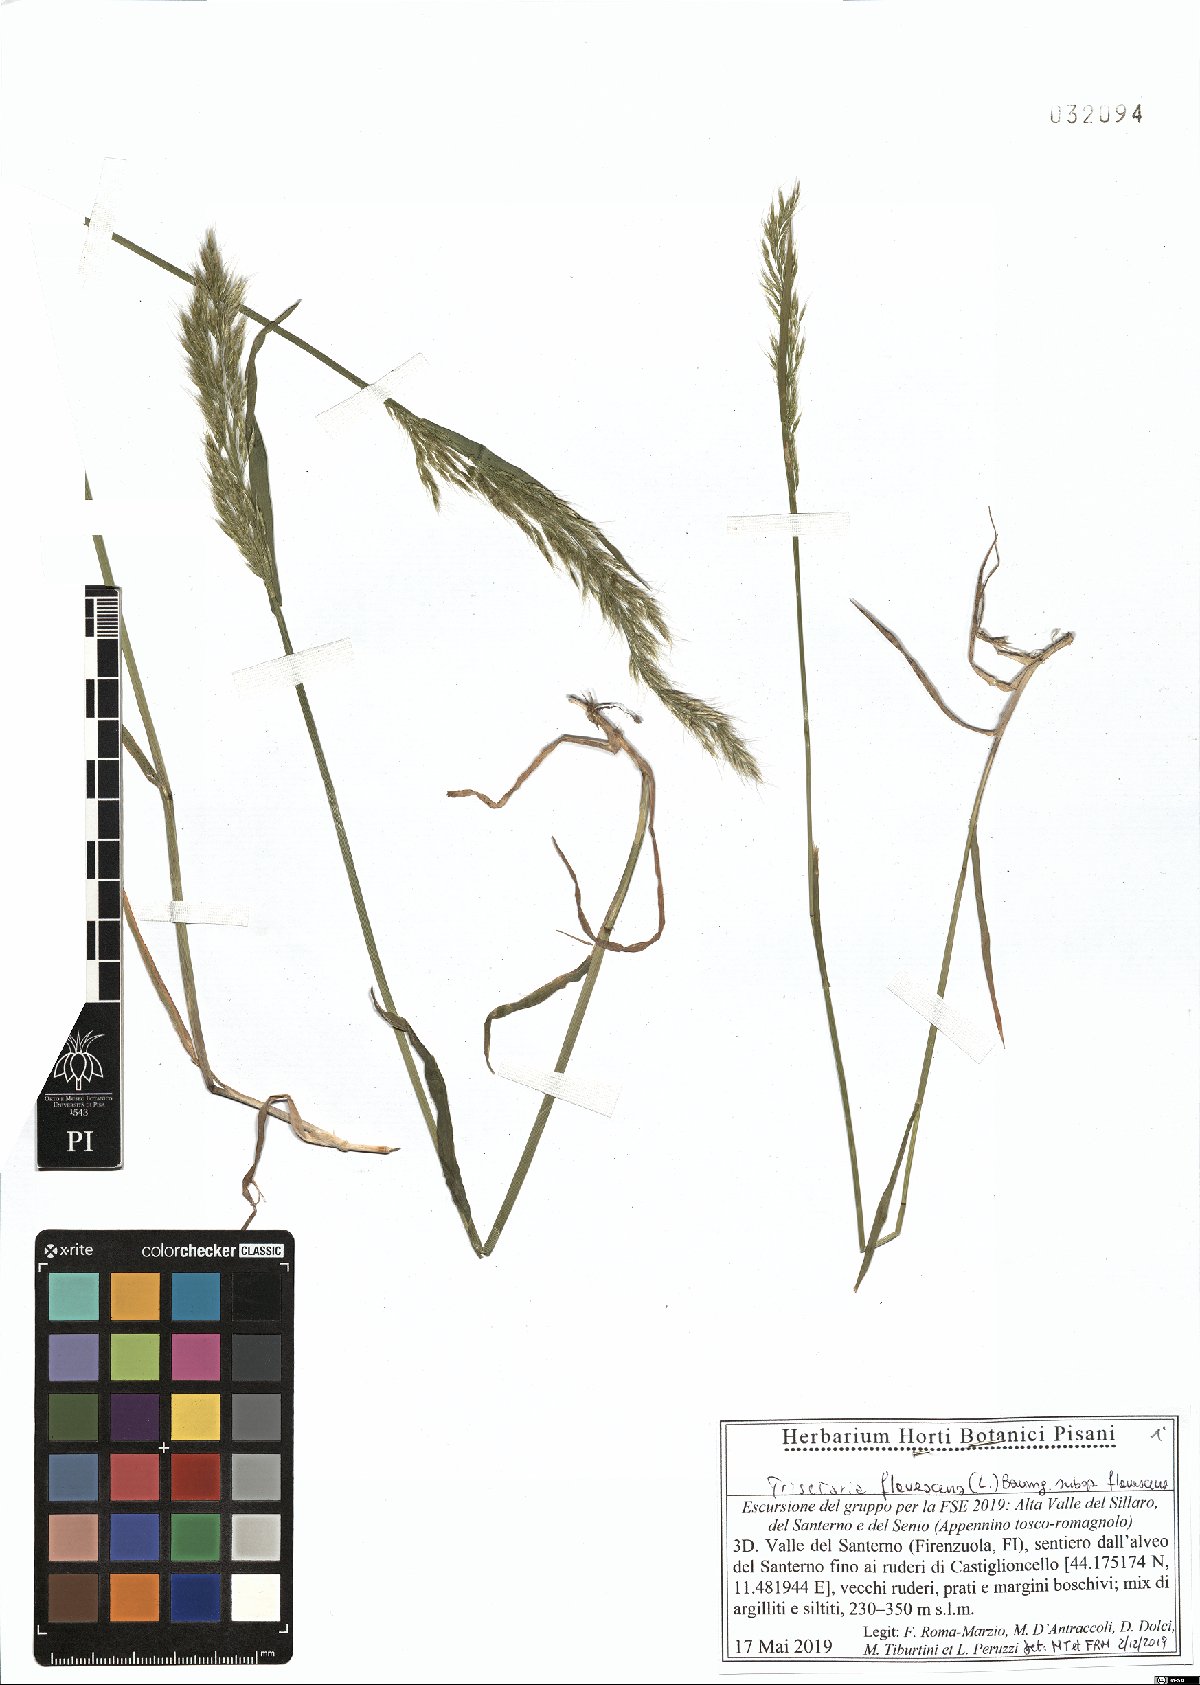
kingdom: Plantae
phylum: Tracheophyta
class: Liliopsida
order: Poales
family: Poaceae
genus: Trisetum
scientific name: Trisetum flavescens
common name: Yellow oat-grass
